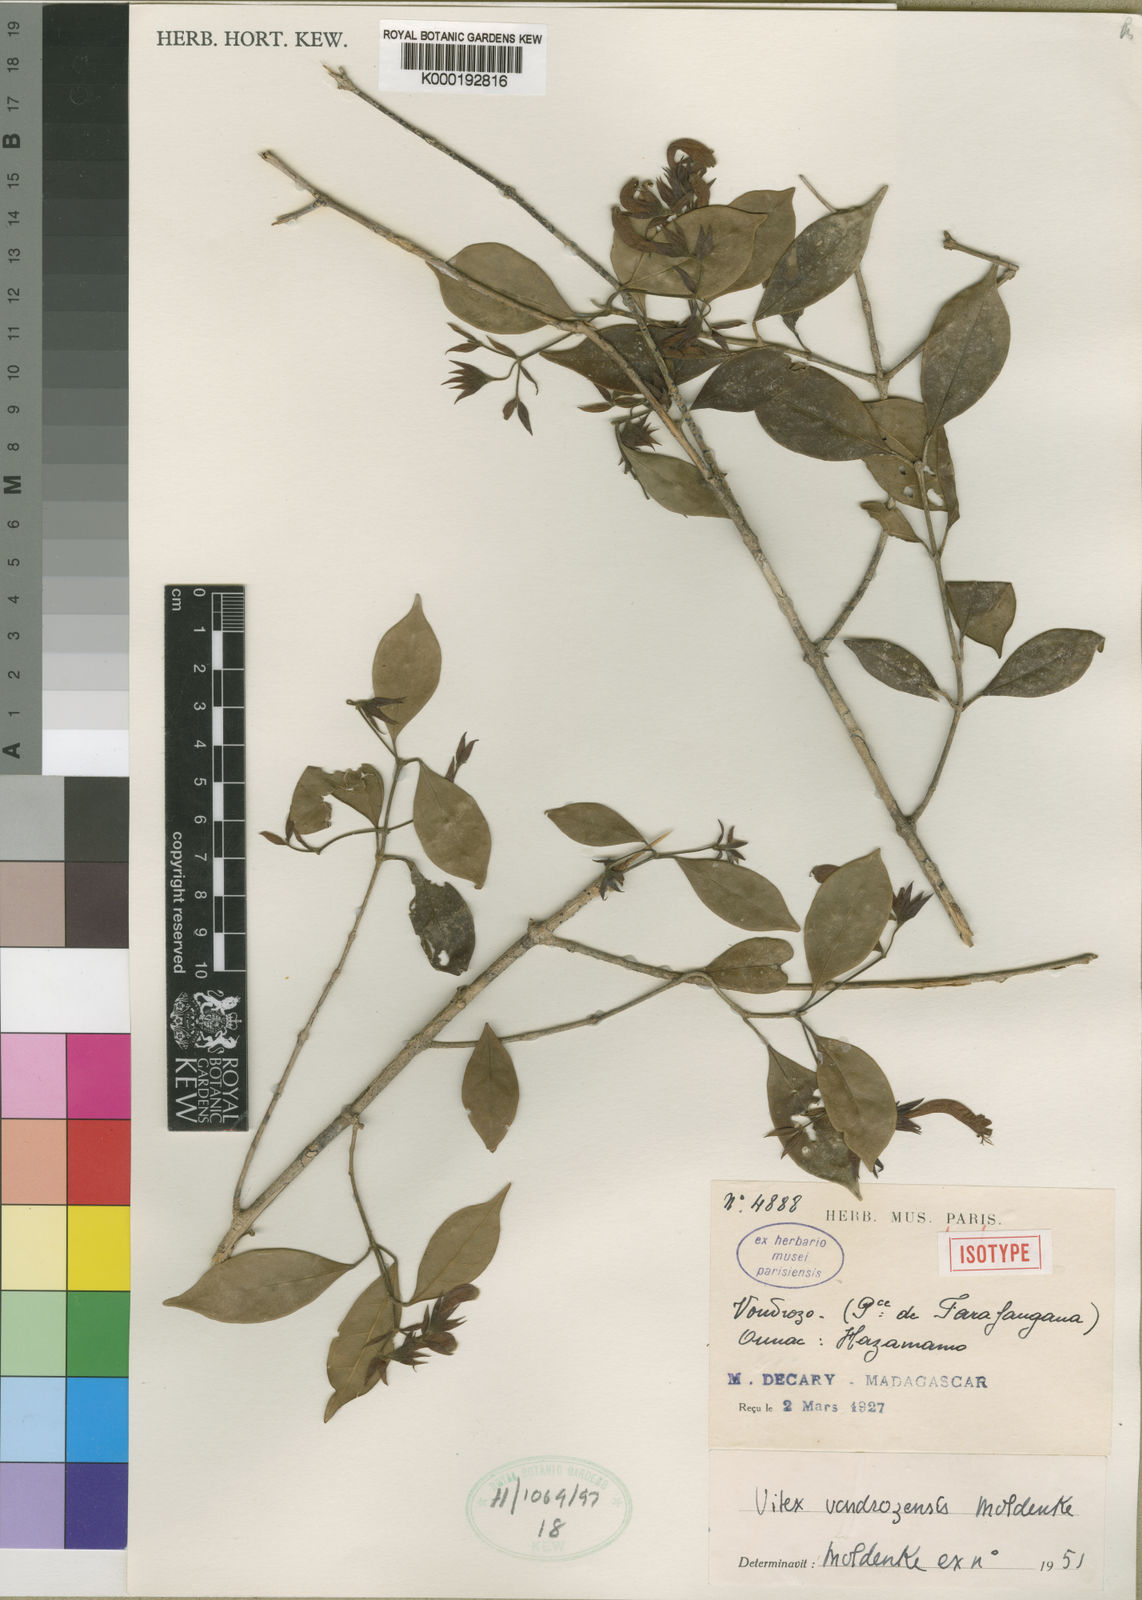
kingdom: Plantae
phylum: Tracheophyta
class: Magnoliopsida
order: Lamiales
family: Lamiaceae
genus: Vitex
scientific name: Vitex vondrozensis
